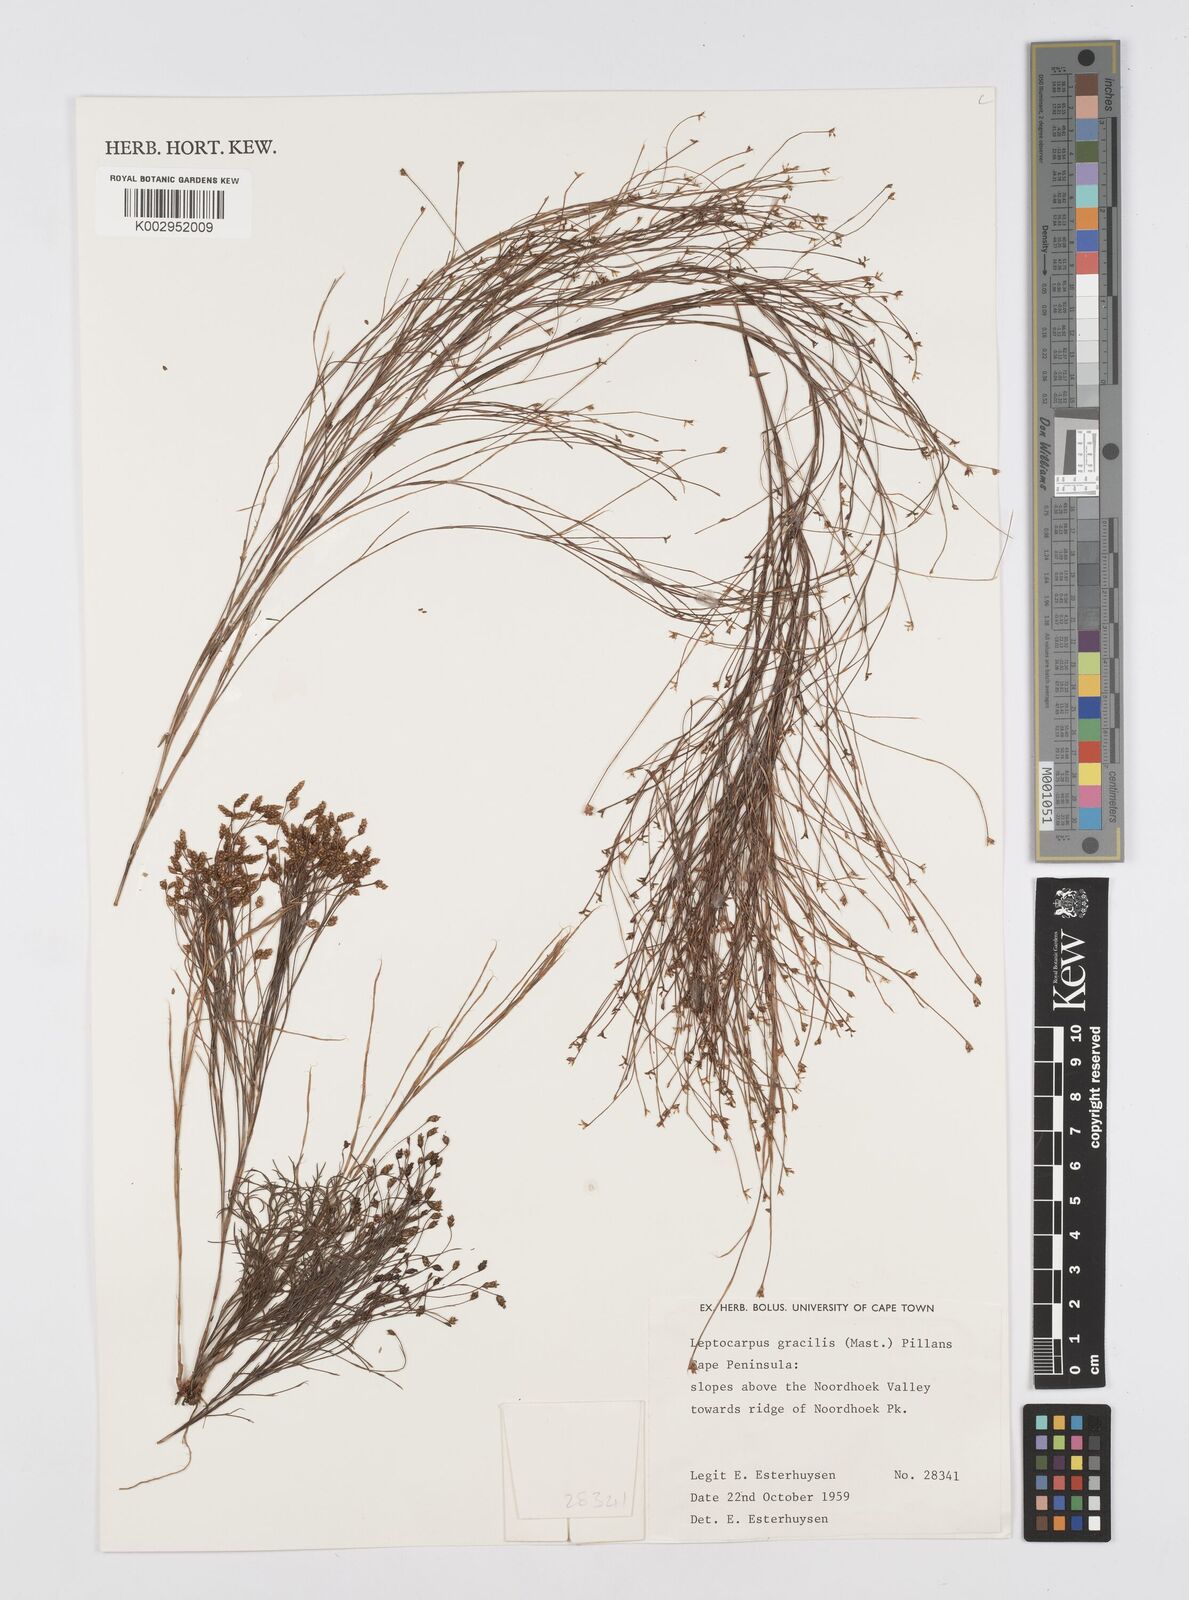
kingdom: Plantae
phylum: Tracheophyta
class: Liliopsida
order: Poales
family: Restionaceae
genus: Baloskion
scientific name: Baloskion gracile
